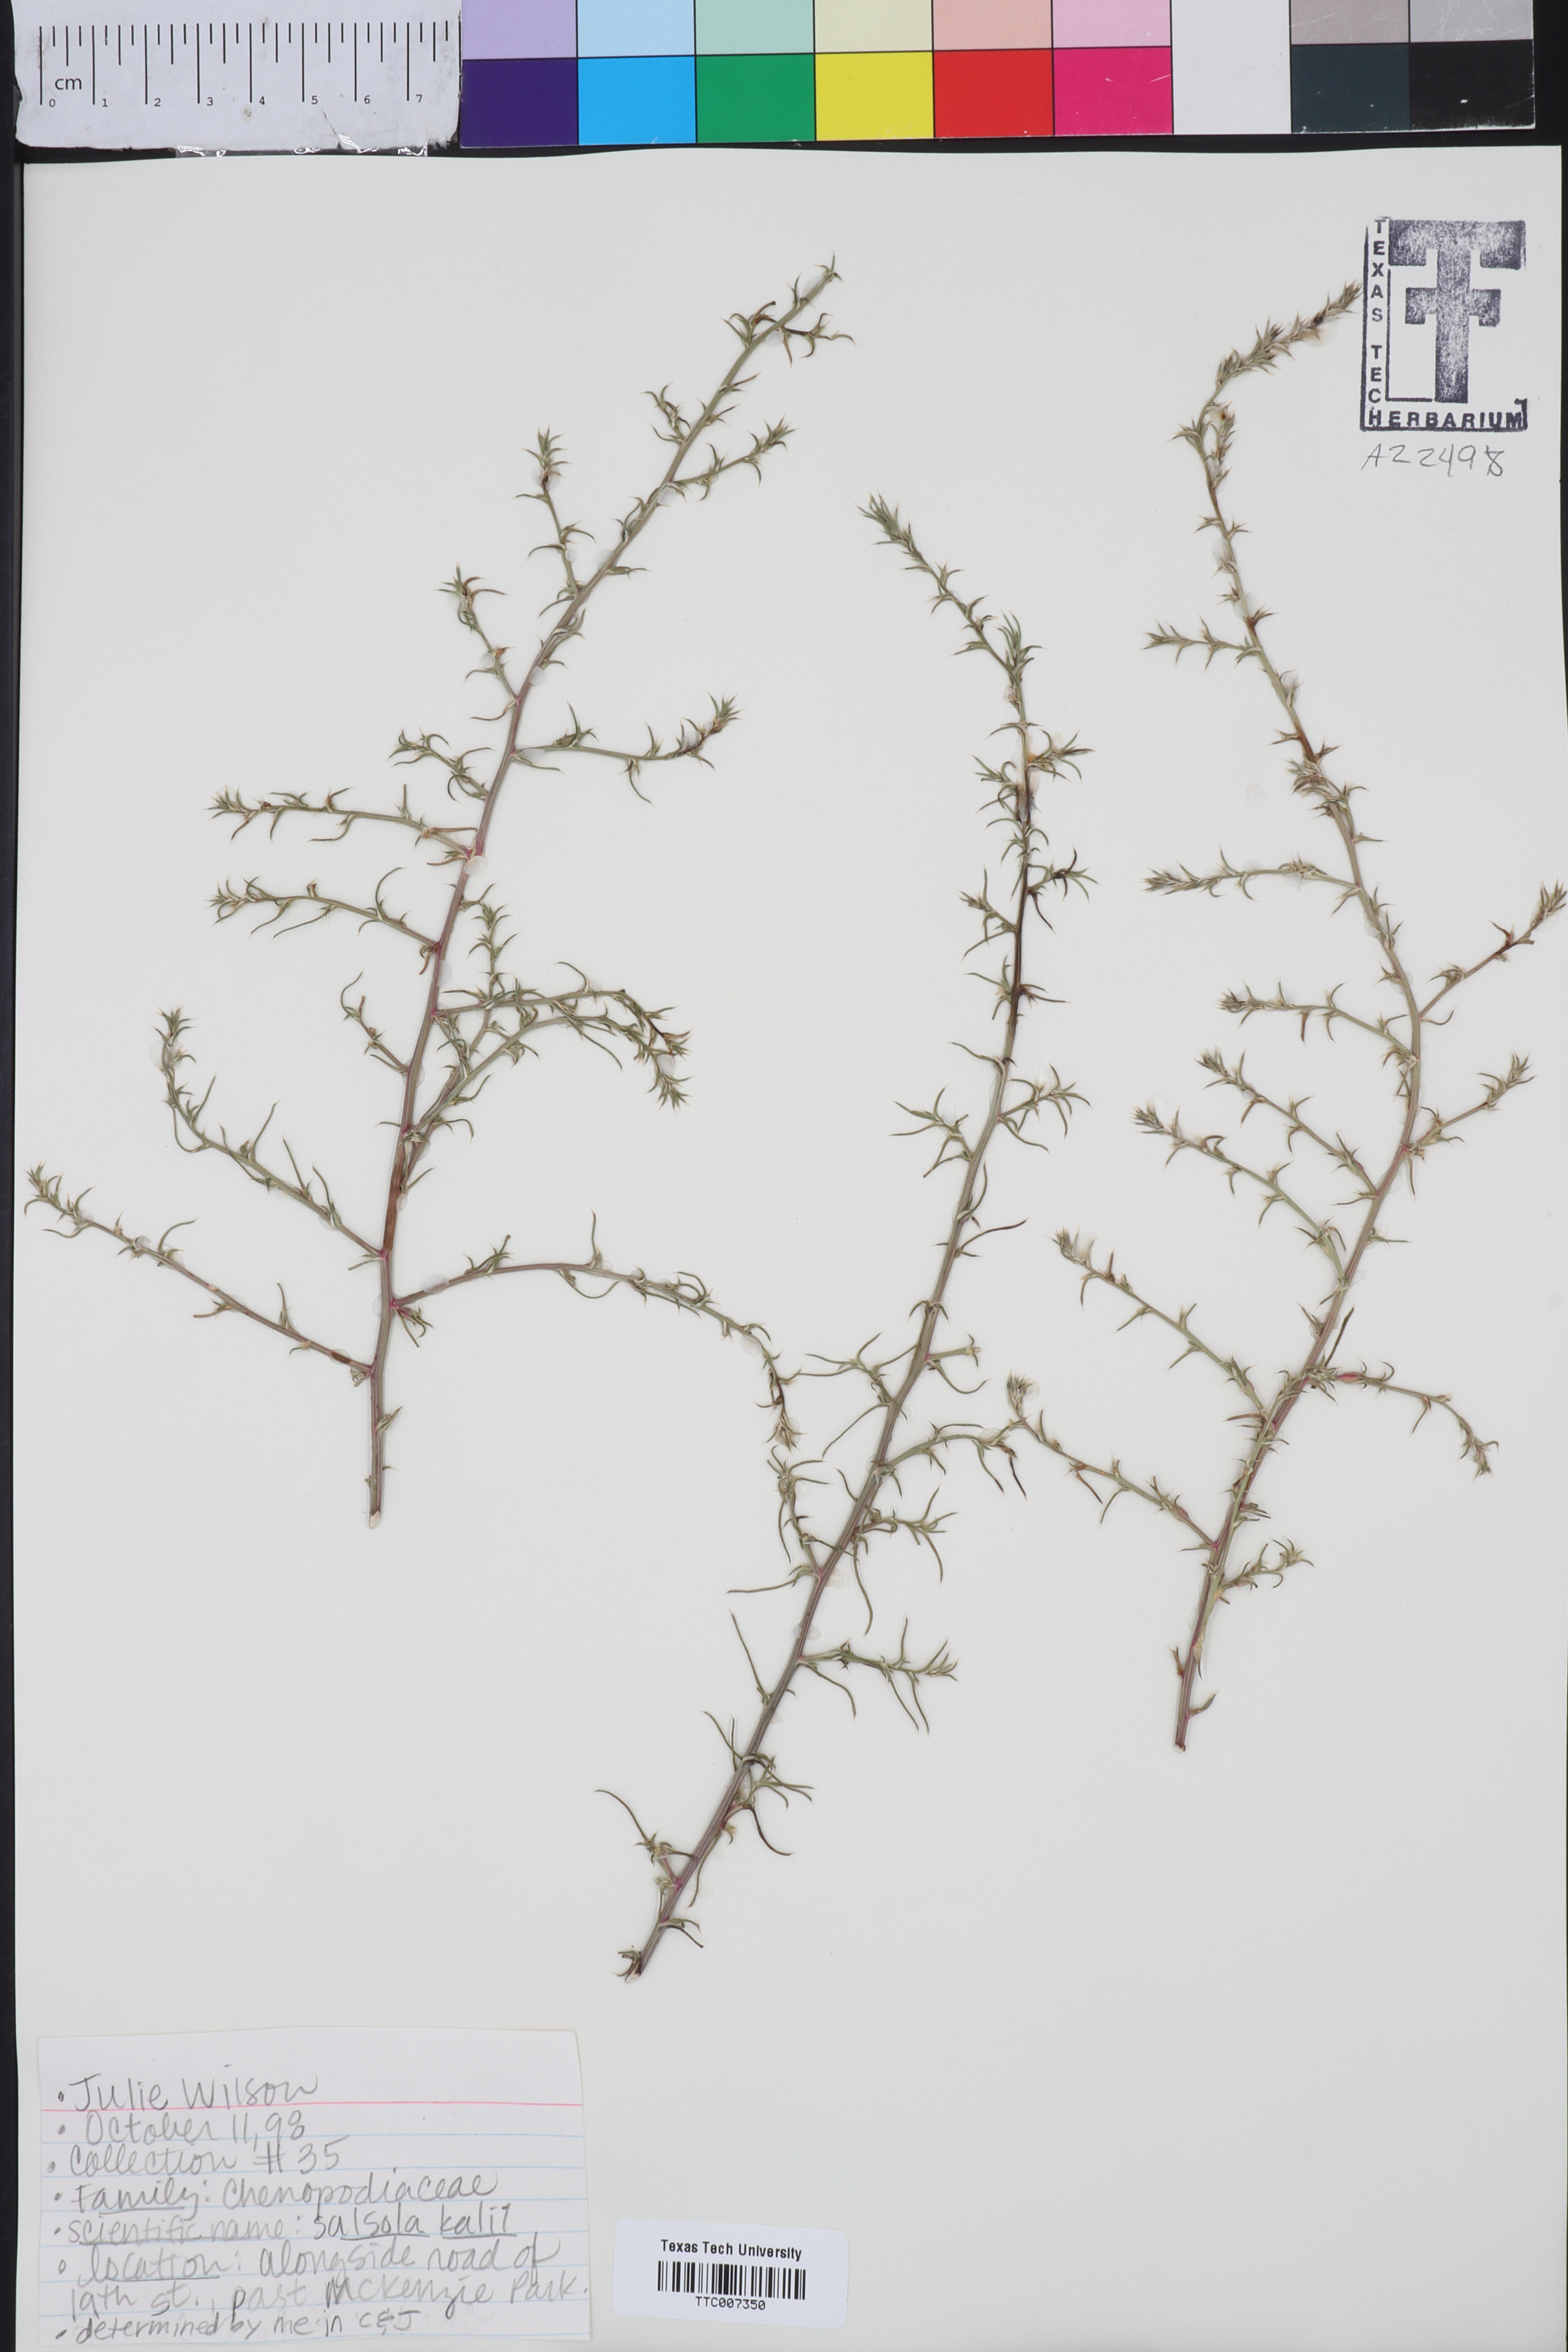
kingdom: Plantae
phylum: Tracheophyta
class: Magnoliopsida
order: Caryophyllales
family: Amaranthaceae
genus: Suaeda
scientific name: Suaeda
